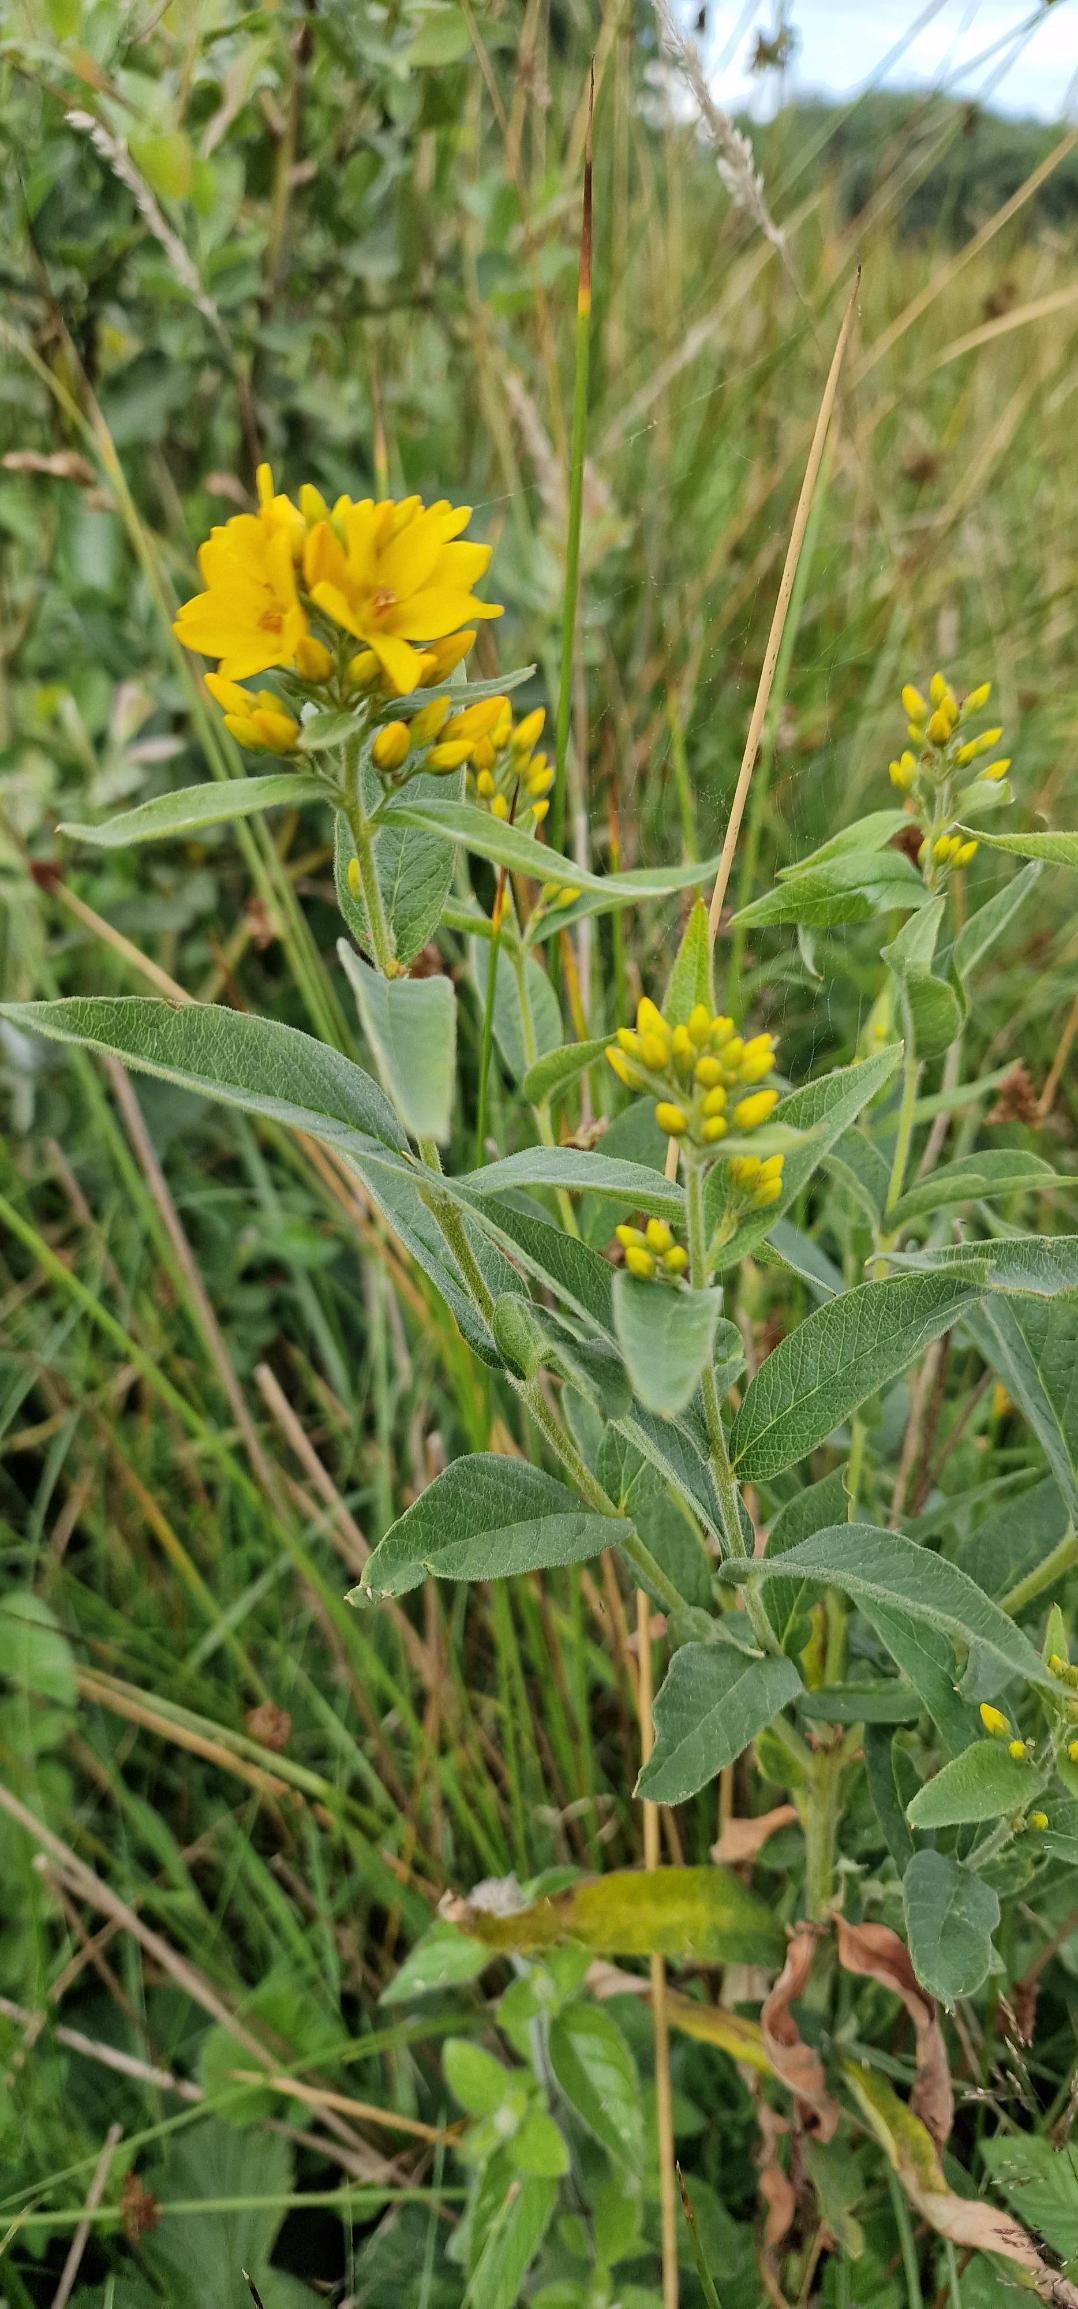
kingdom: Plantae
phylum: Tracheophyta
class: Magnoliopsida
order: Ericales
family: Primulaceae
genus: Lysimachia
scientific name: Lysimachia vulgaris
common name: Almindelig fredløs
